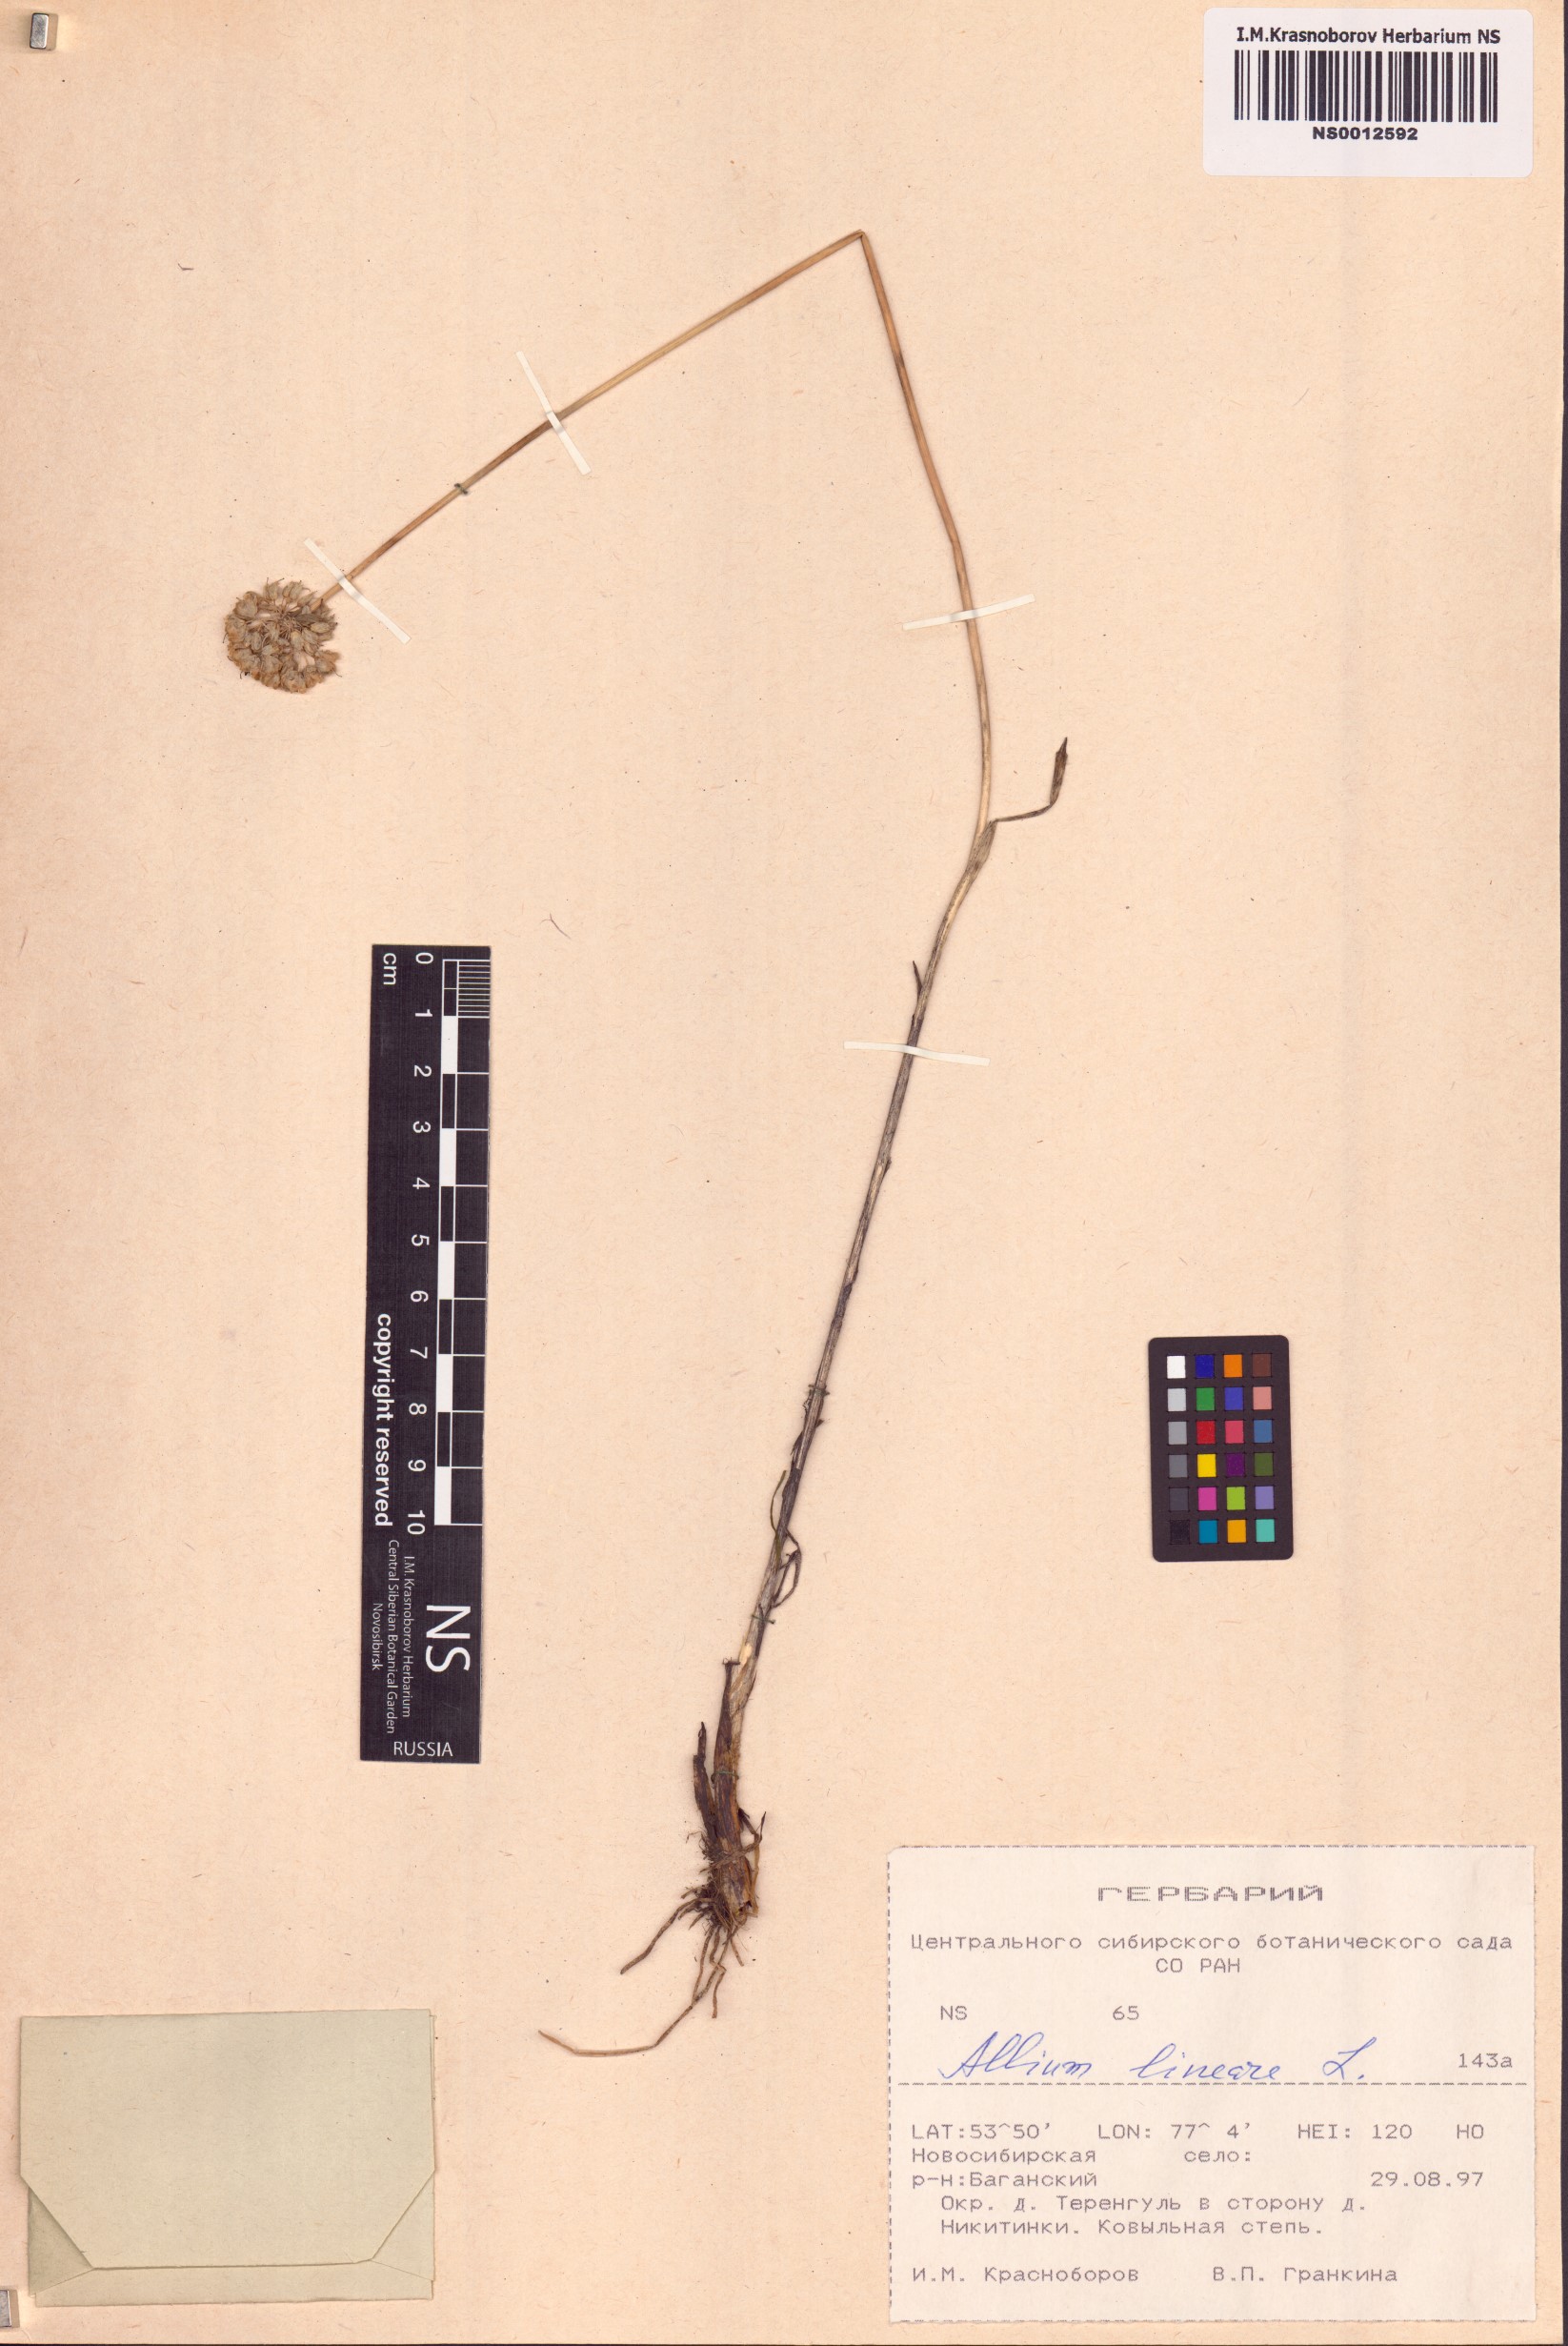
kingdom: Plantae
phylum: Tracheophyta
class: Liliopsida
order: Asparagales
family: Amaryllidaceae
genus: Allium
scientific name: Allium lineare
